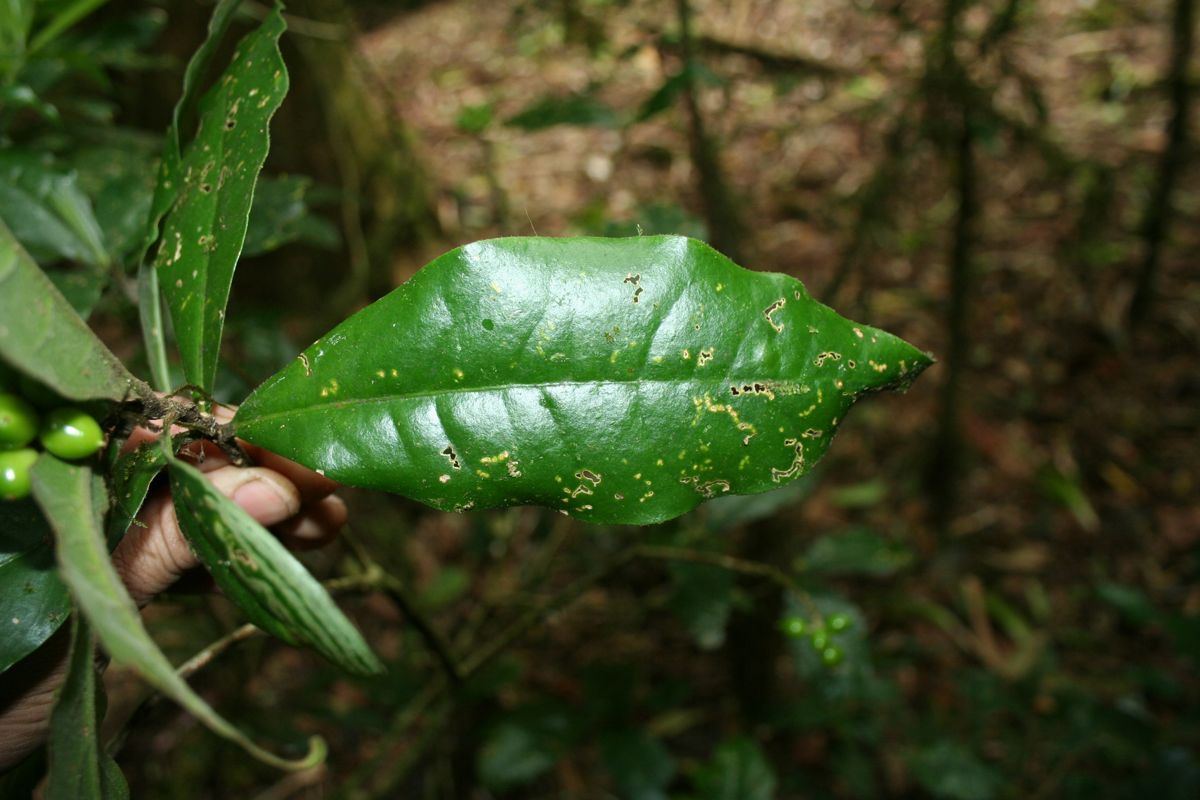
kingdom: Plantae
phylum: Tracheophyta
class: Magnoliopsida
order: Malvales
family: Thymelaeaceae
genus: Daphnopsis
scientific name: Daphnopsis selerorum
